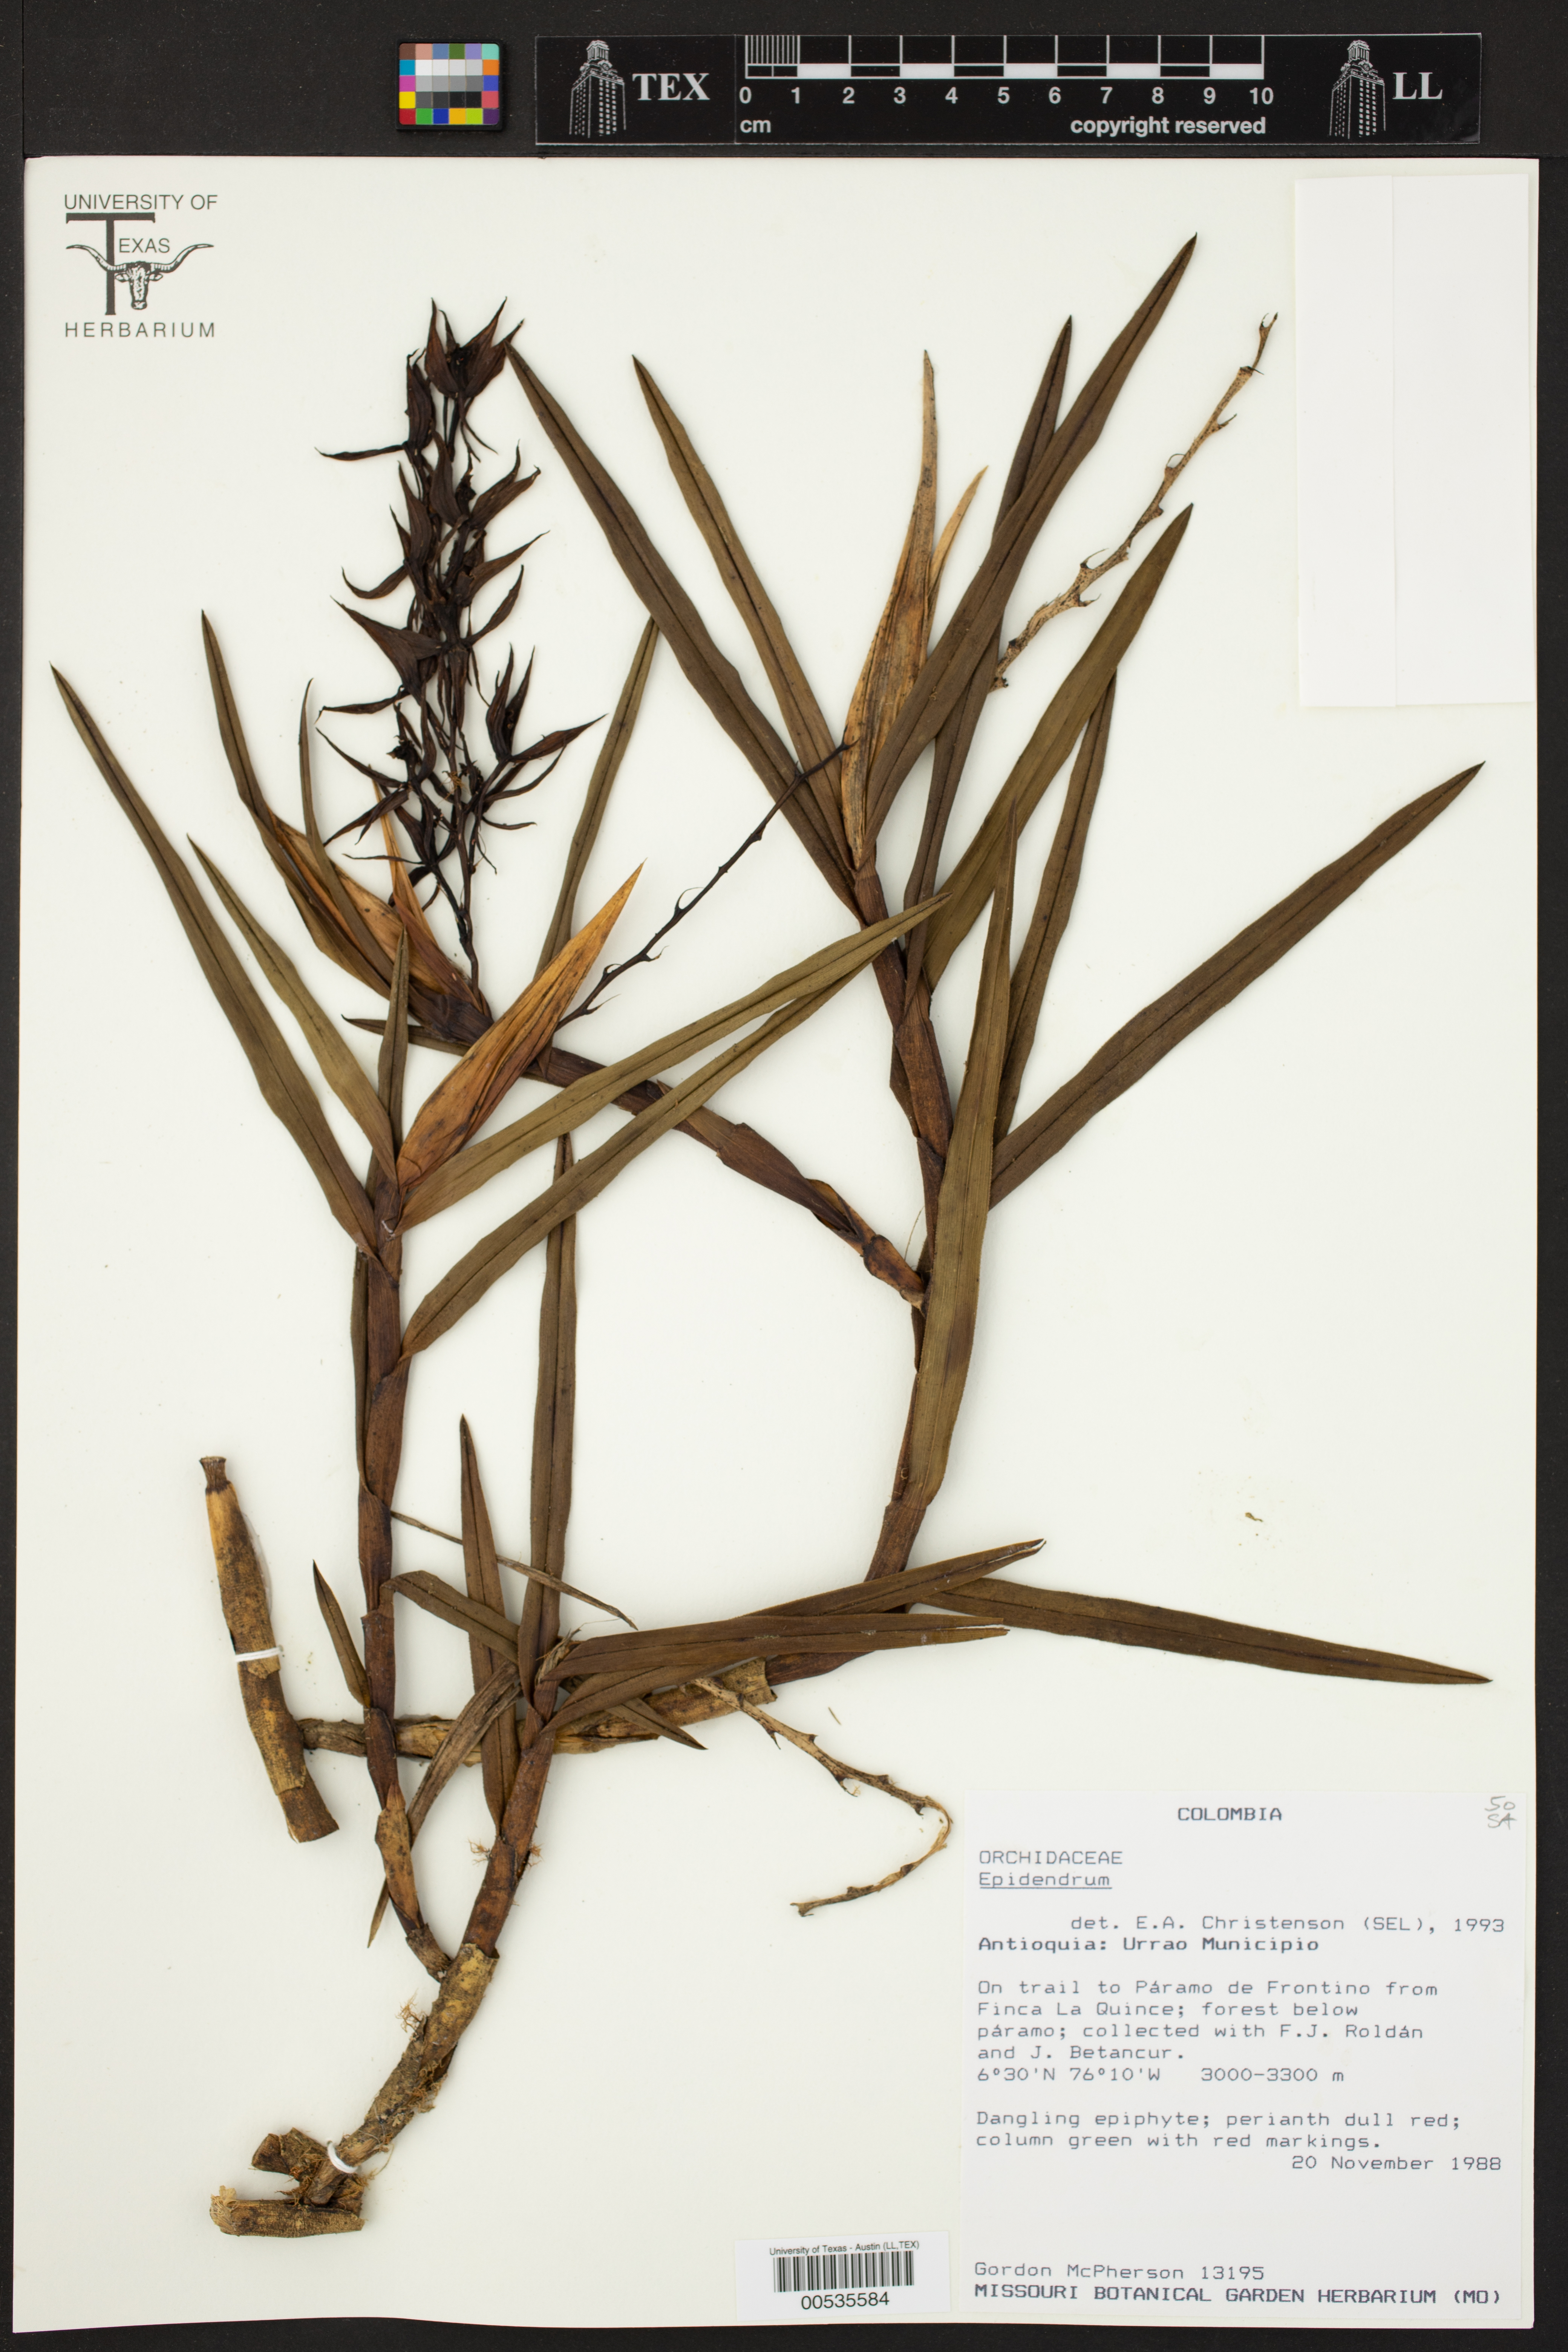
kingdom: Plantae
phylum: Tracheophyta
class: Liliopsida
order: Asparagales
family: Orchidaceae
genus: Epidendrum
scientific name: Epidendrum
